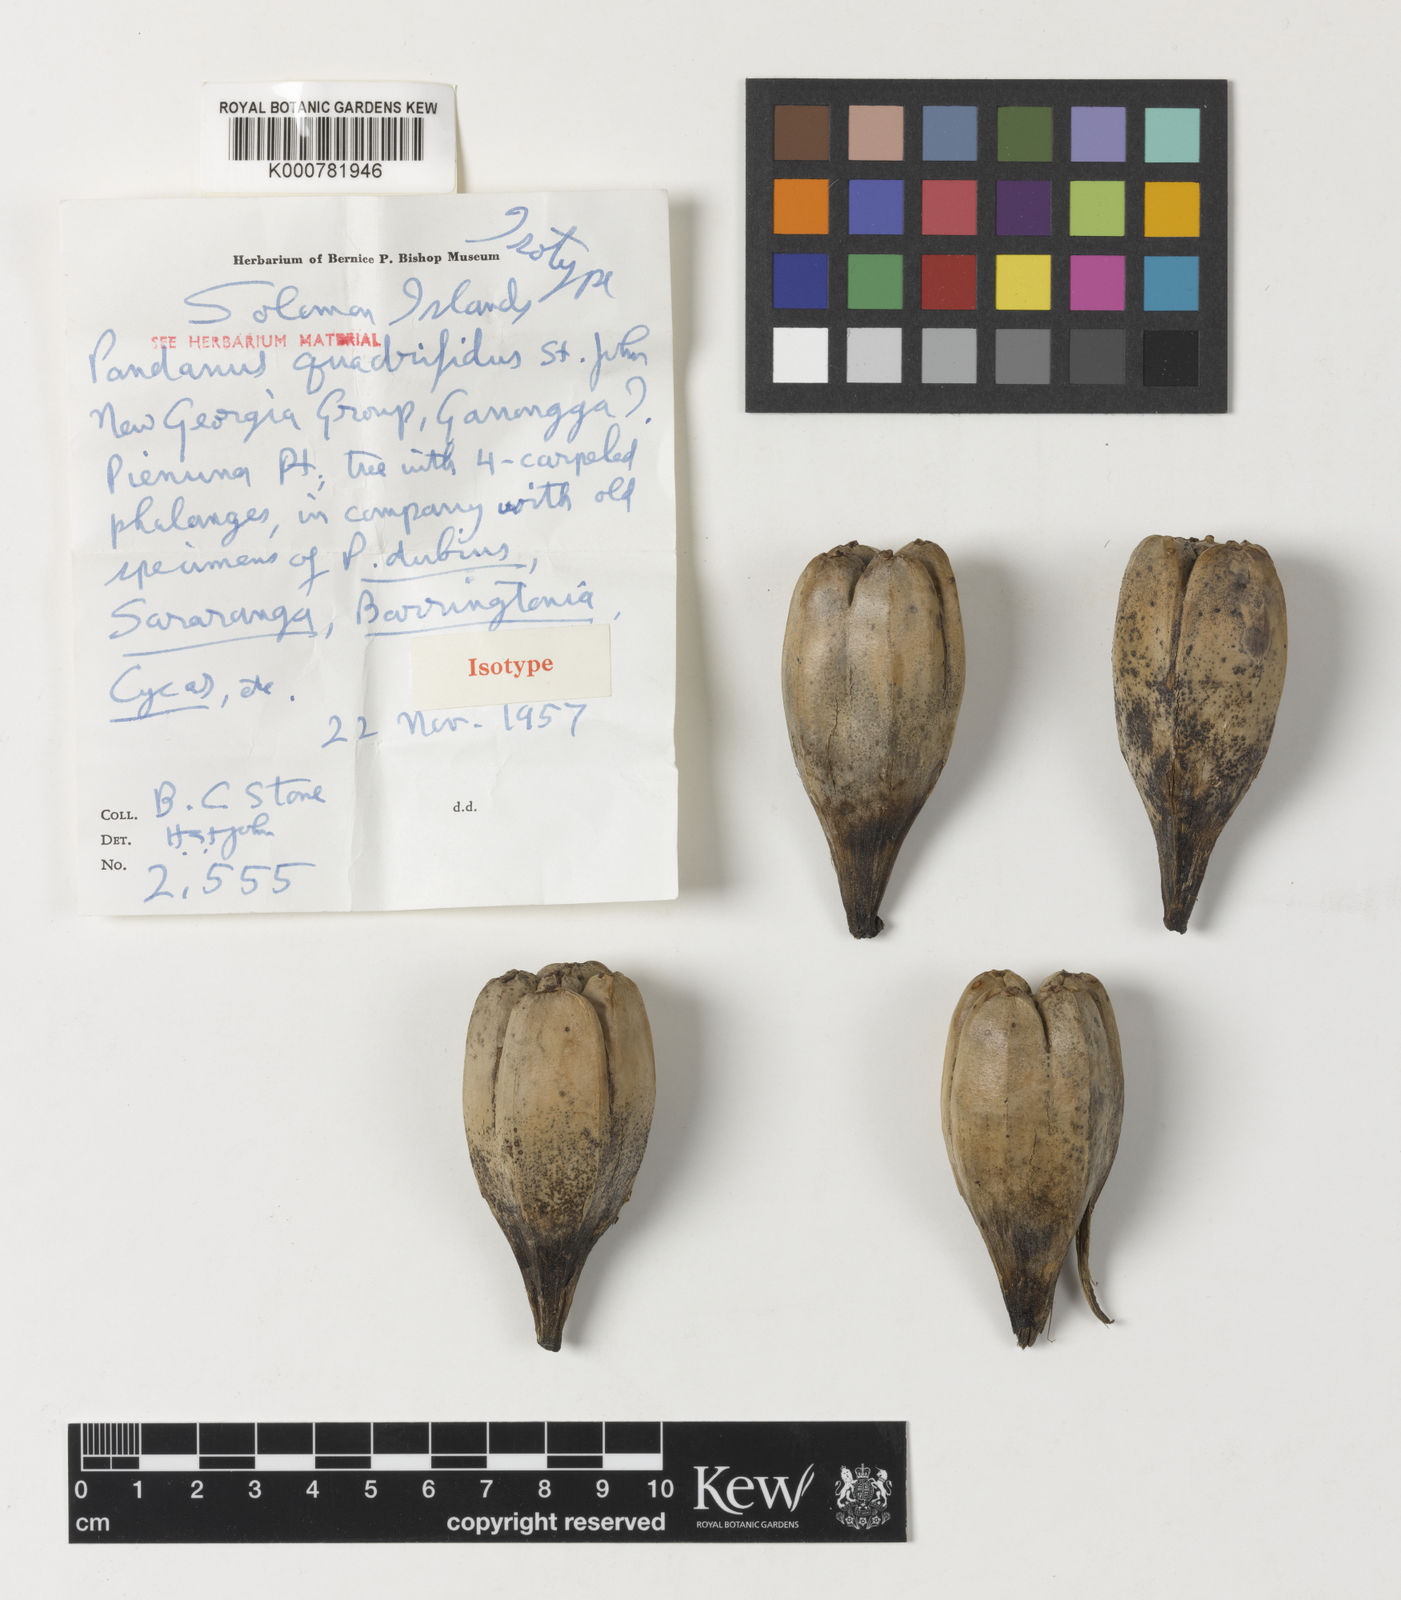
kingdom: Plantae
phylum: Tracheophyta
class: Liliopsida
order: Pandanales
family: Pandanaceae
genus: Pandanus
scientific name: Pandanus
